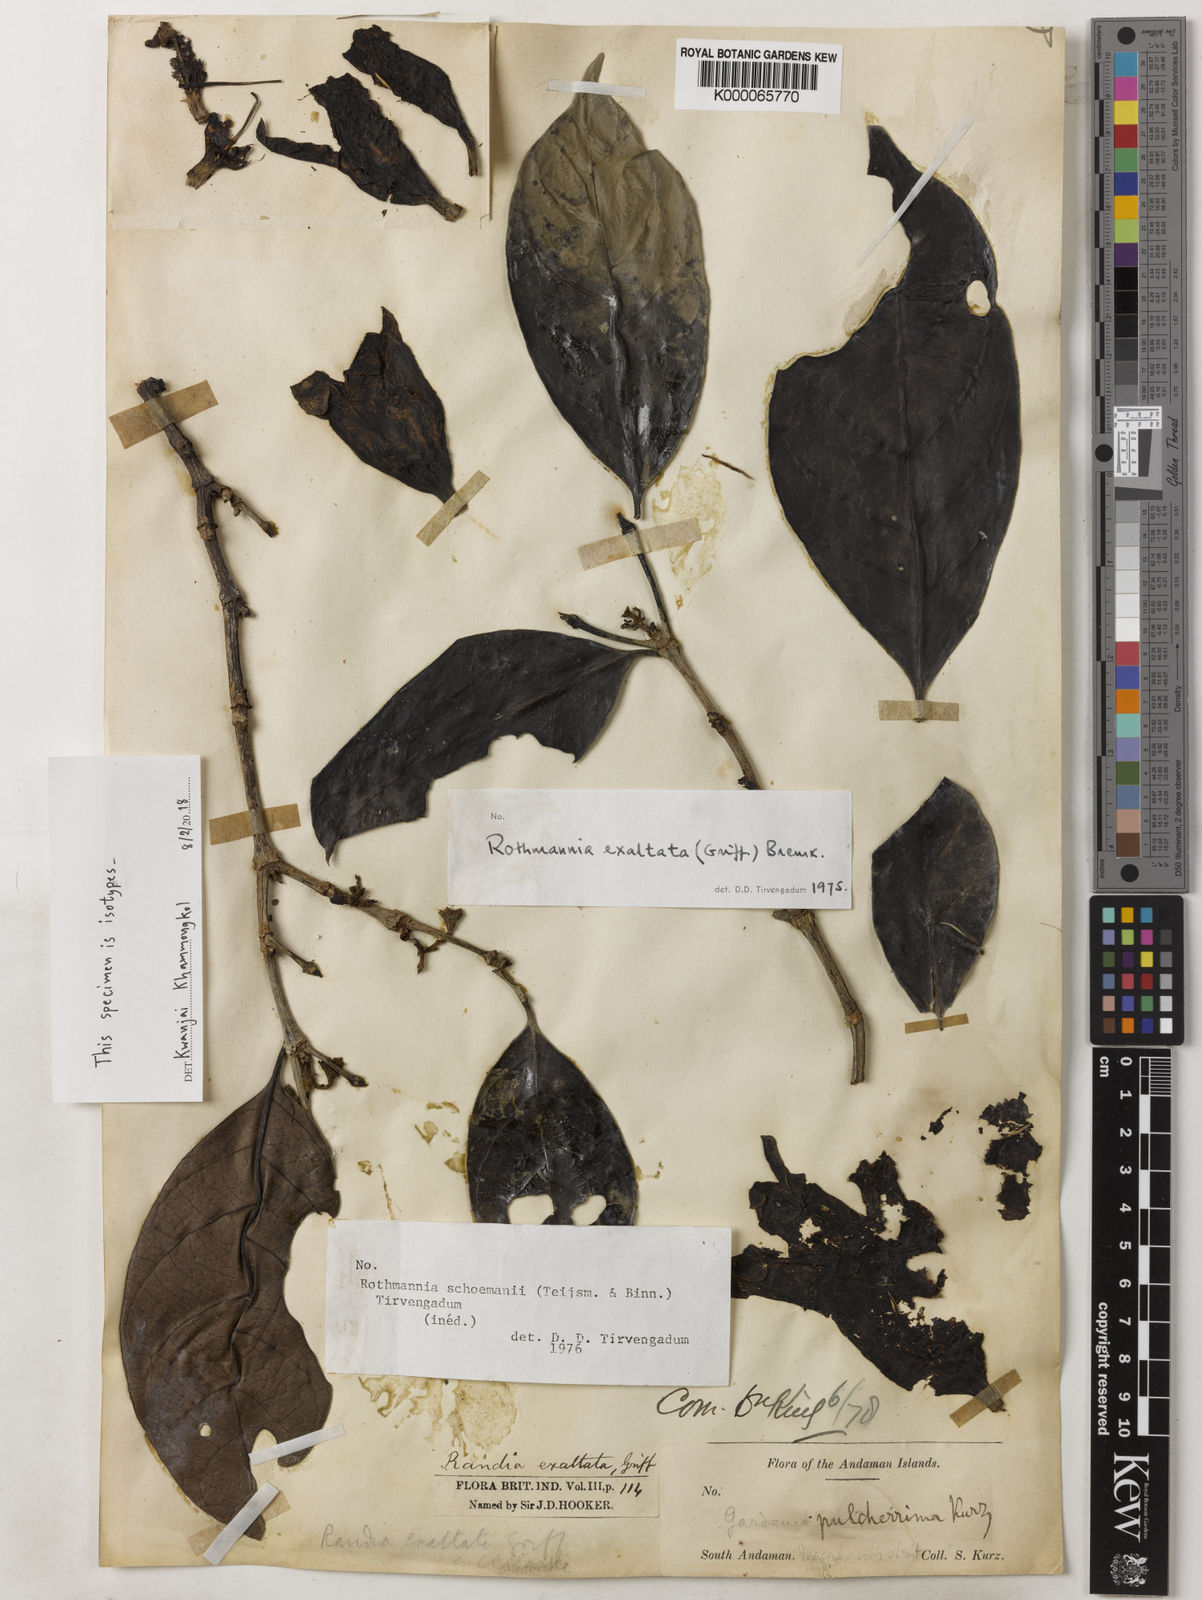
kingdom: Plantae
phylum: Tracheophyta
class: Magnoliopsida
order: Gentianales
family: Rubiaceae
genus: Ridsdalea
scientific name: Ridsdalea pulcherrima
